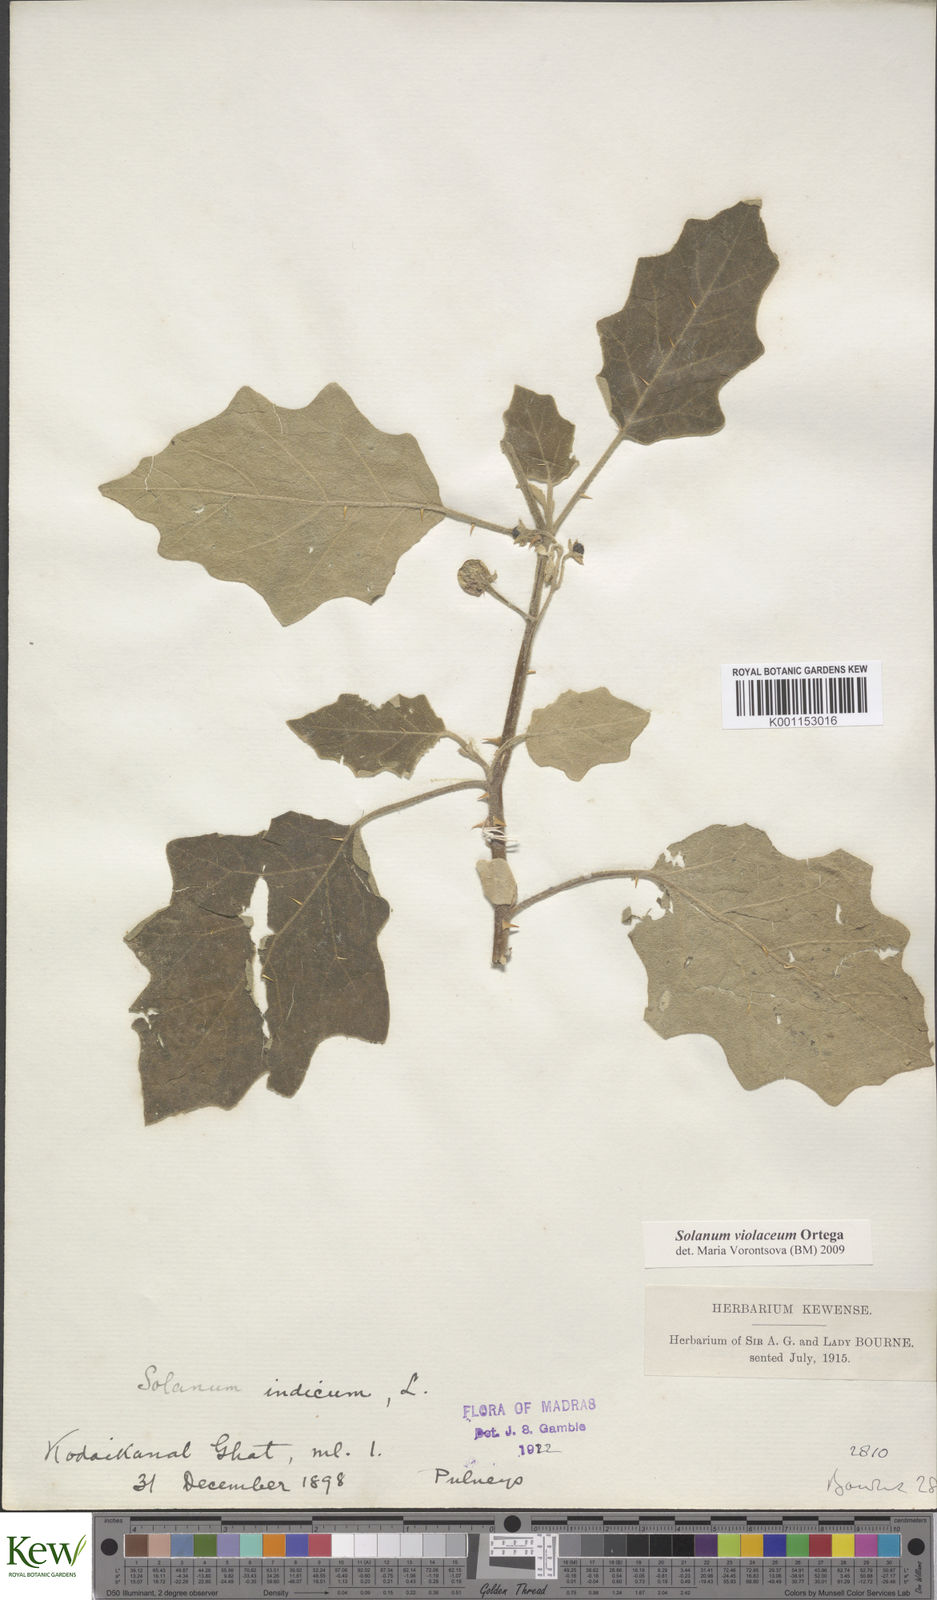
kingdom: Plantae
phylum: Tracheophyta
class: Magnoliopsida
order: Solanales
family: Solanaceae
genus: Solanum
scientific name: Solanum violaceum
